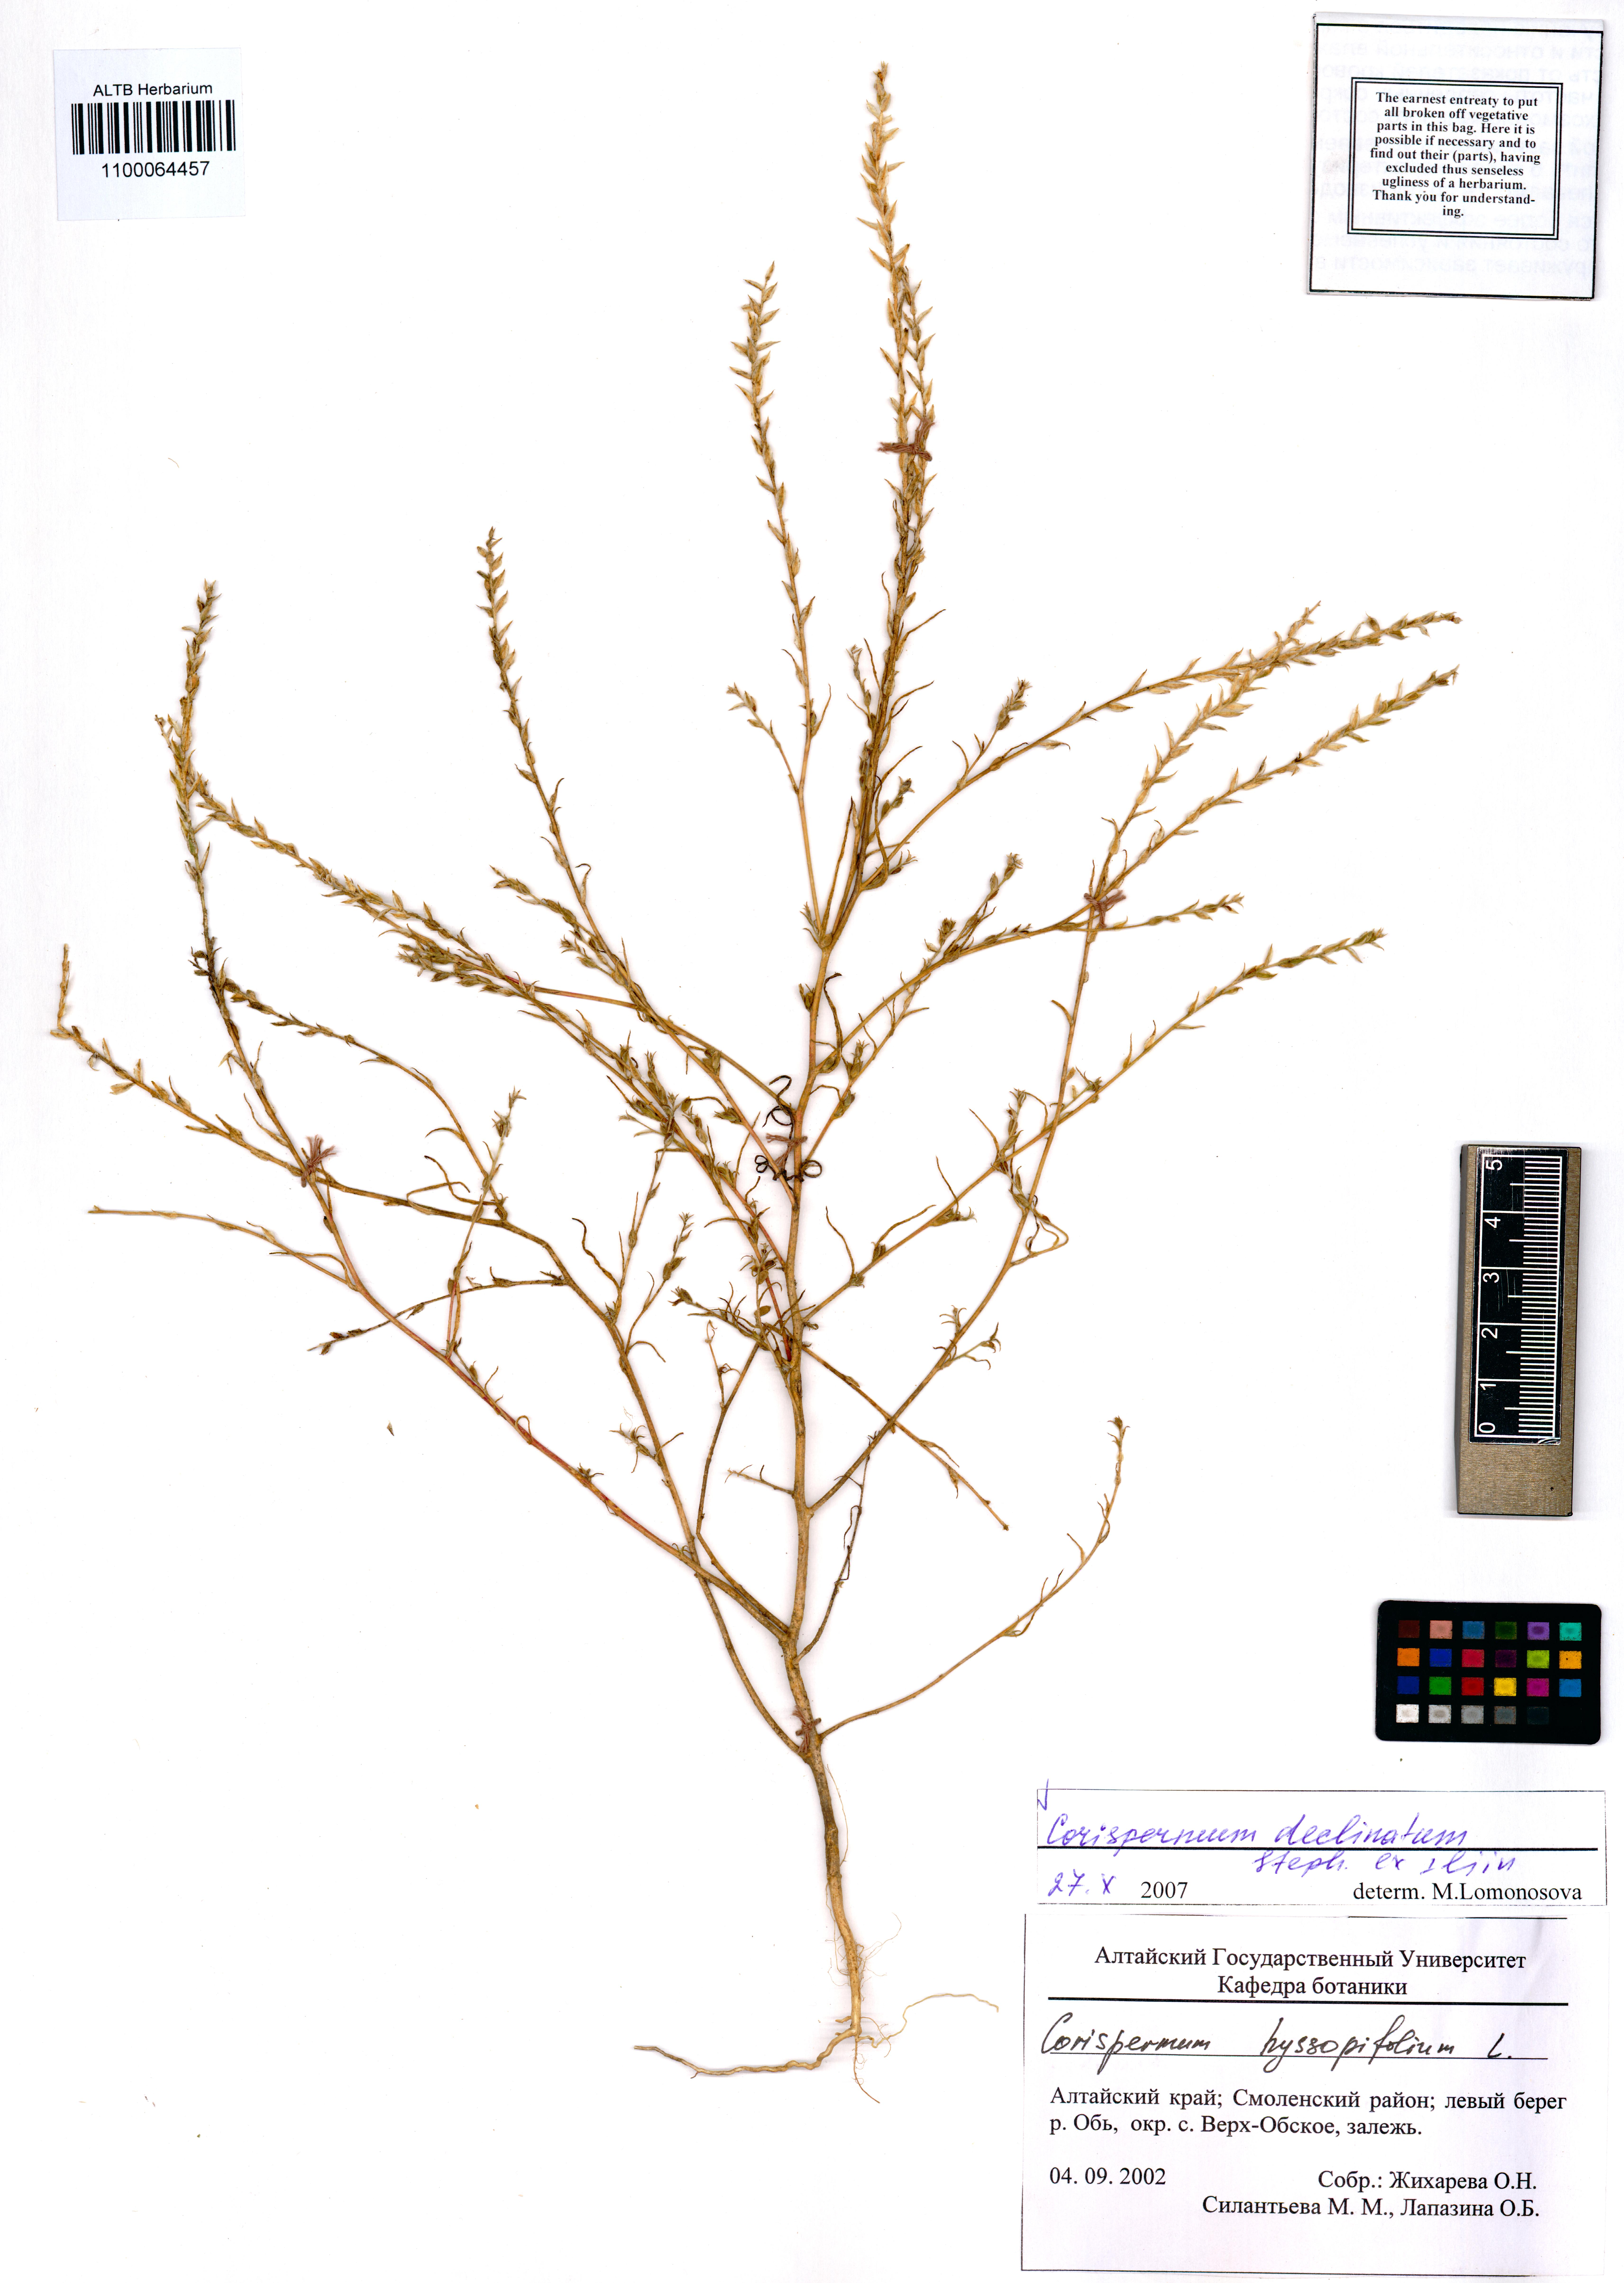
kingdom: Plantae
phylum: Tracheophyta
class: Magnoliopsida
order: Caryophyllales
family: Amaranthaceae
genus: Atriplex
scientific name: Atriplex tatarica
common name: Tatarian orache
